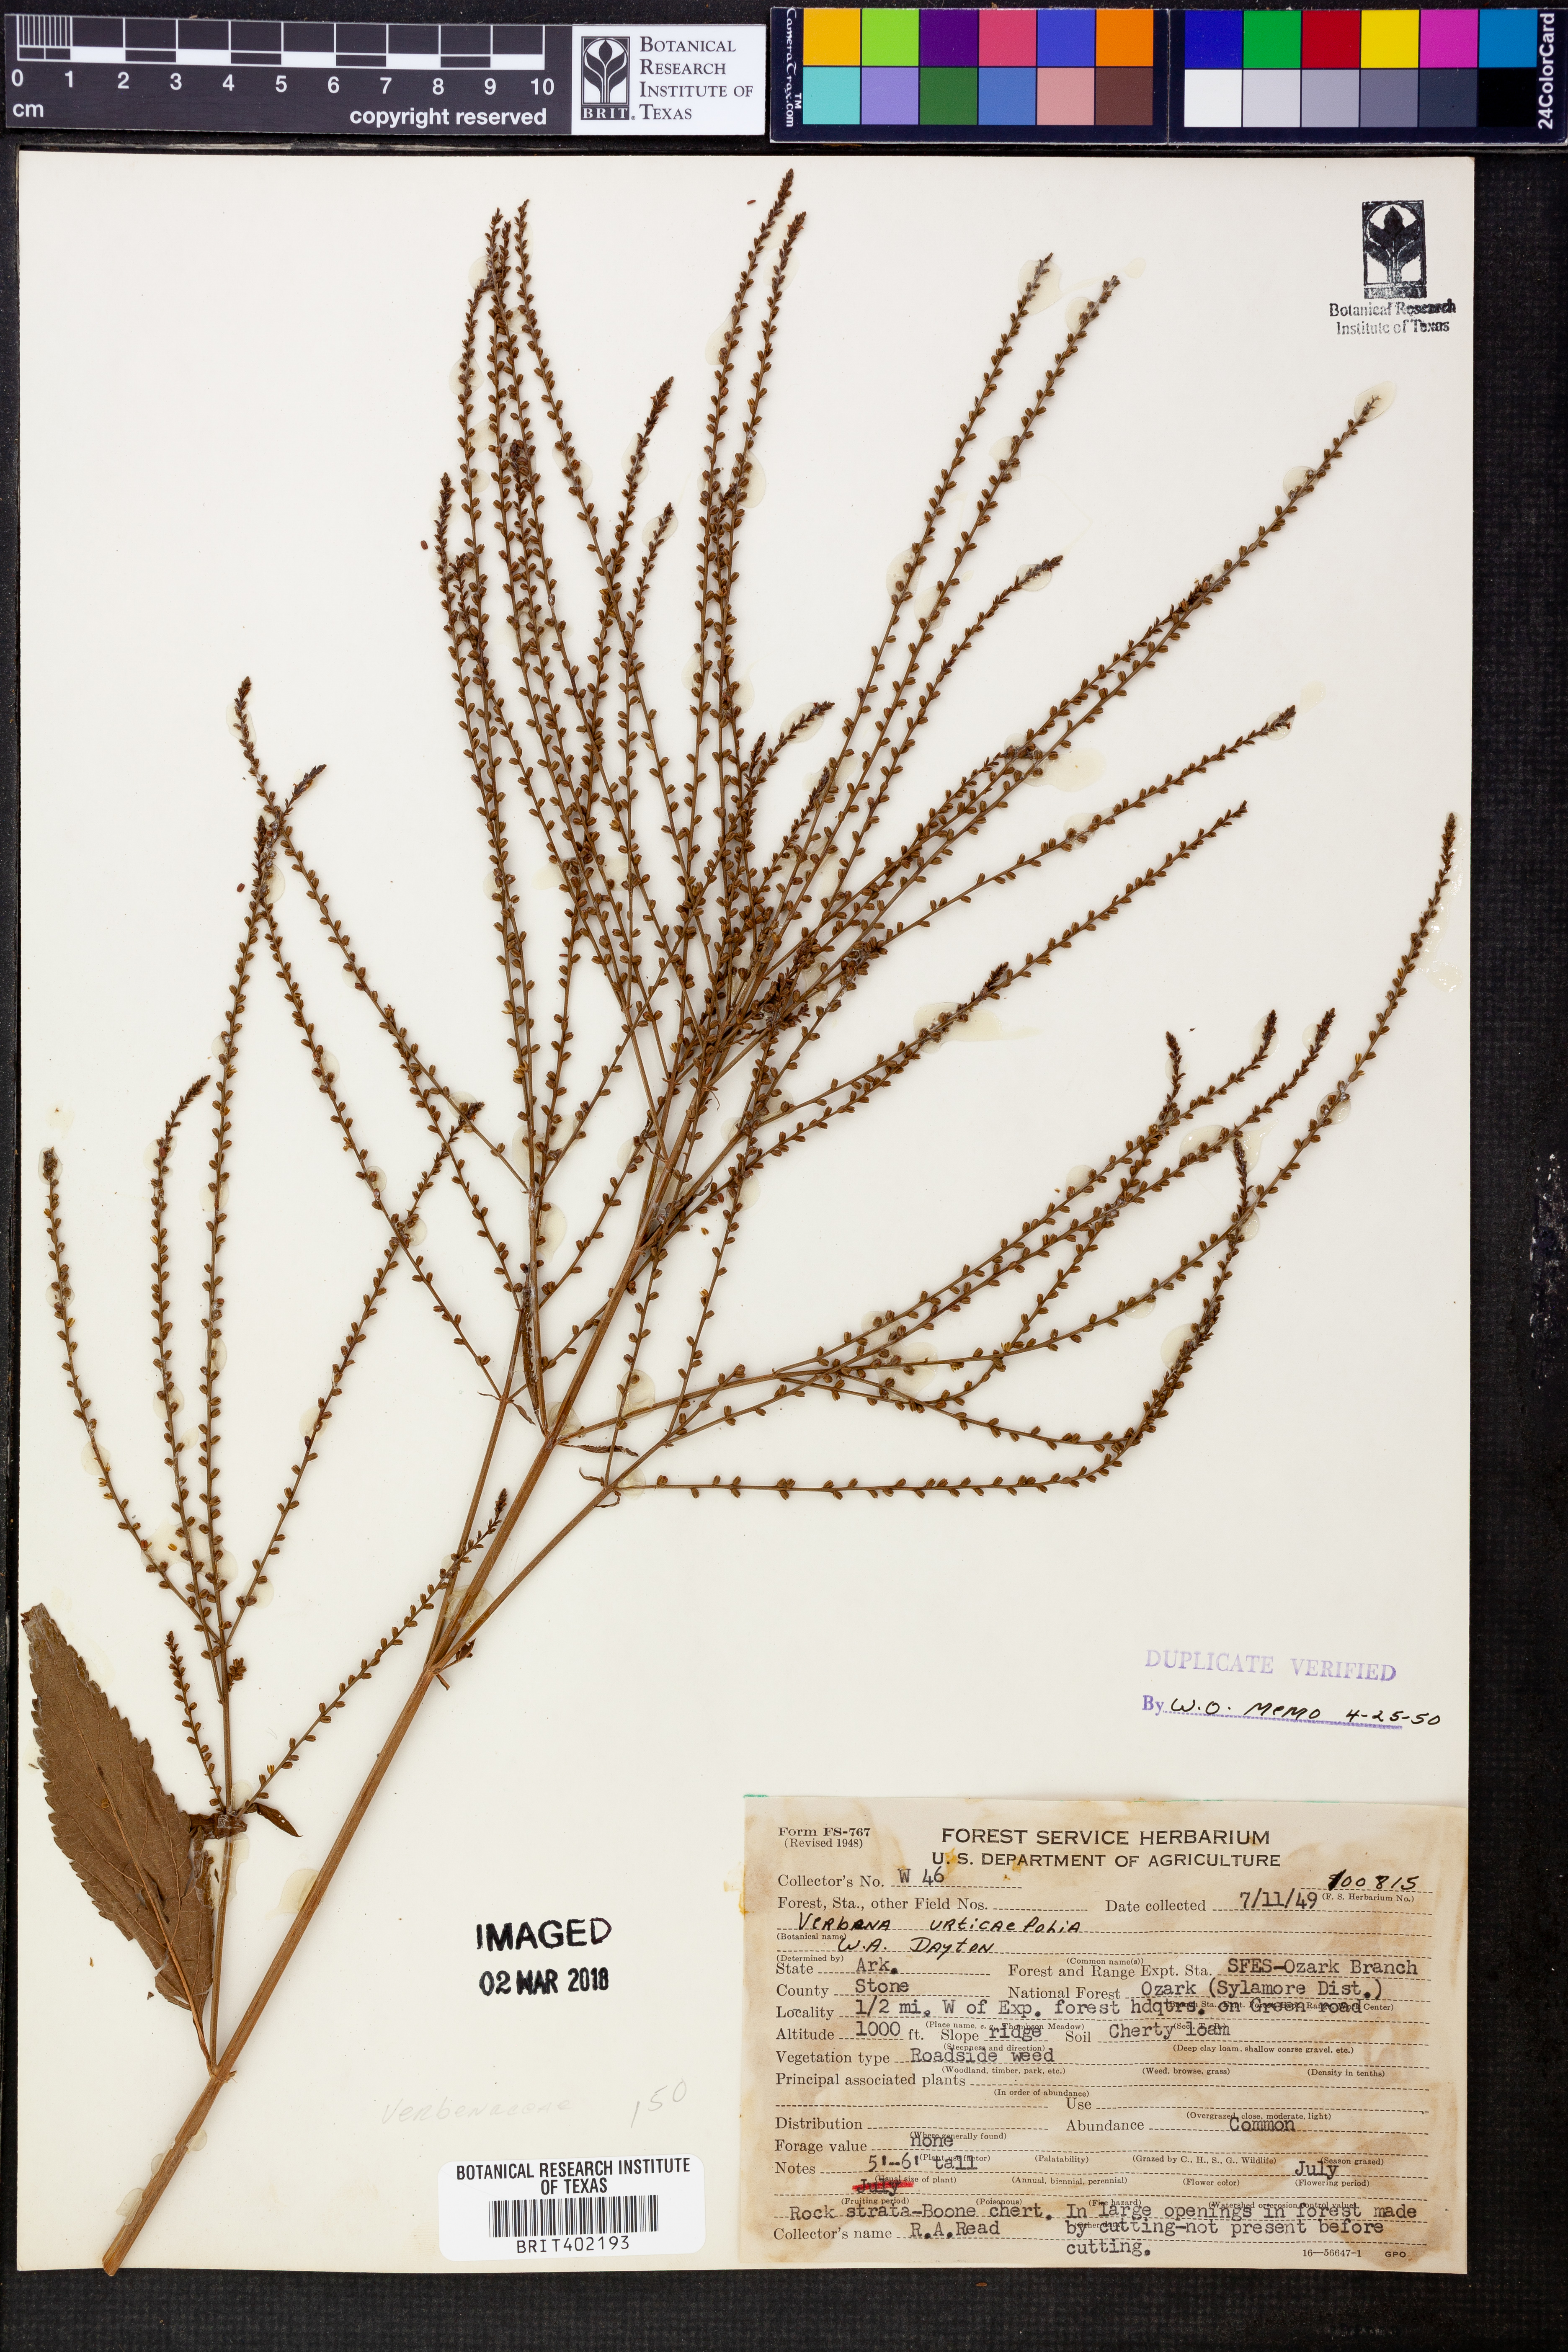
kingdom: Plantae
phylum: Tracheophyta
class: Magnoliopsida
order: Lamiales
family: Verbenaceae
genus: Verbena
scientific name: Verbena urticifolia
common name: Nettle-leaved vervain
